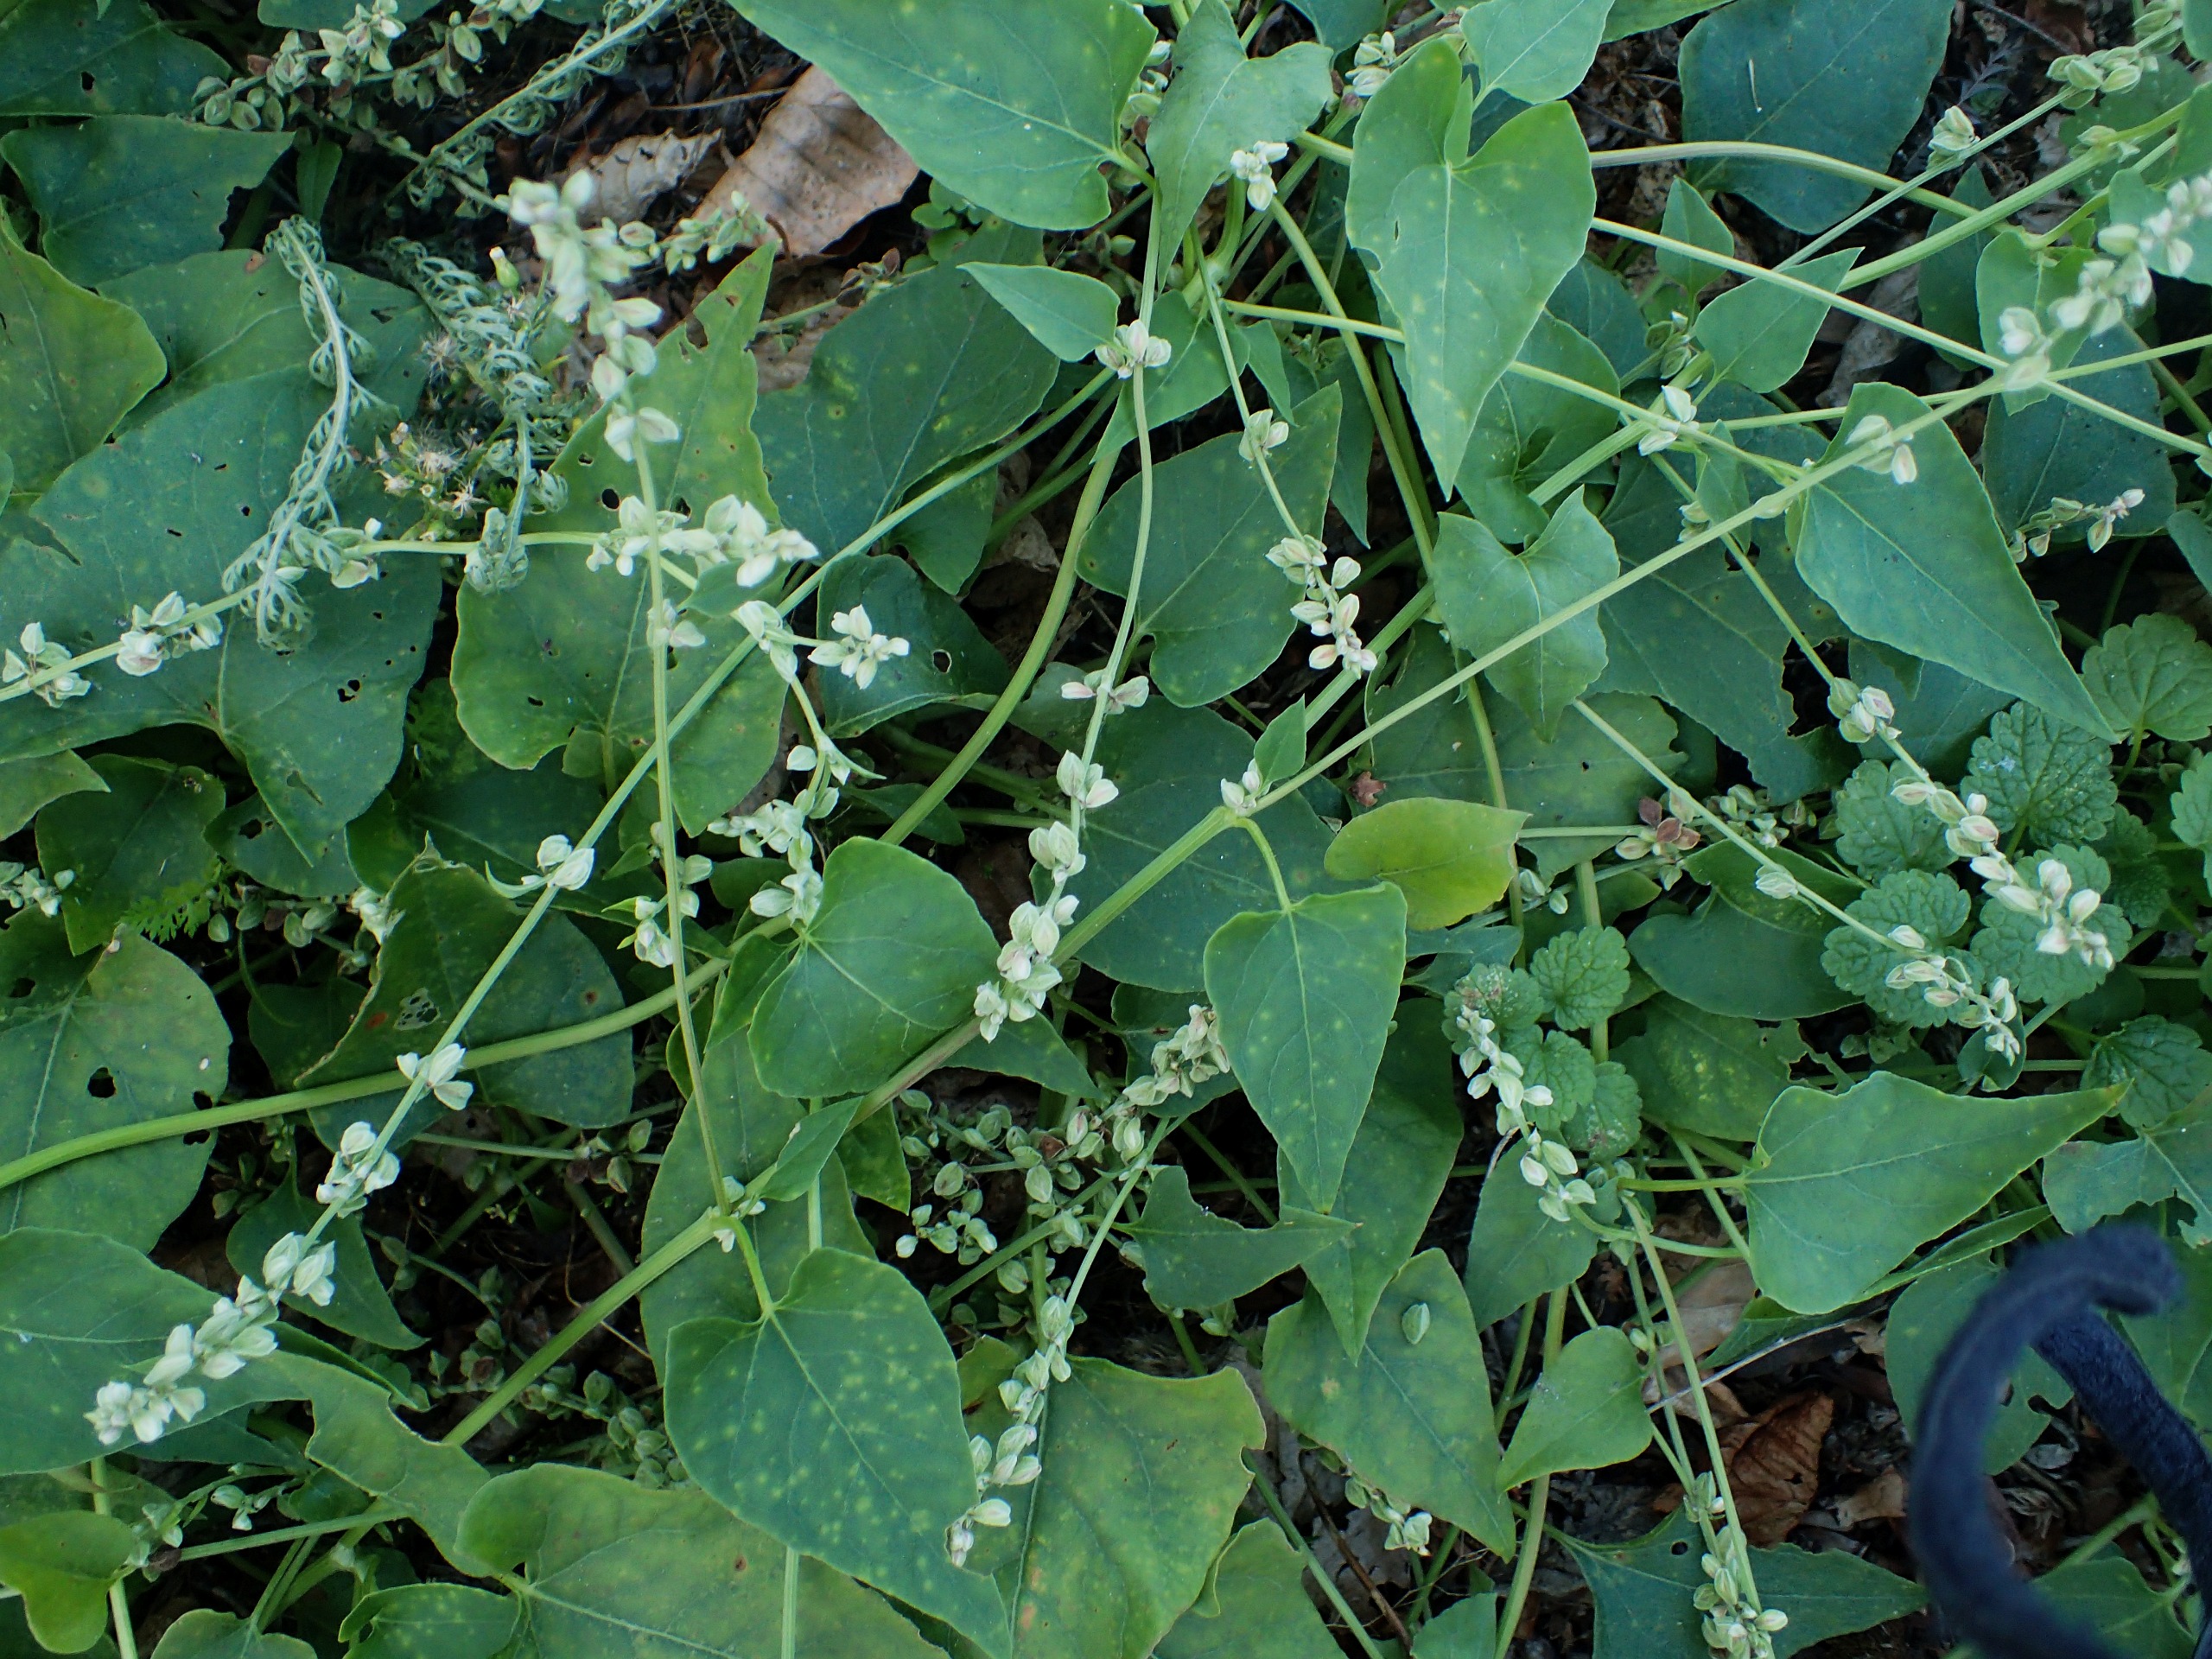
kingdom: Plantae
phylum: Tracheophyta
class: Magnoliopsida
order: Caryophyllales
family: Polygonaceae
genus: Fallopia
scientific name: Fallopia convolvulus
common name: Snerle-pileurt
